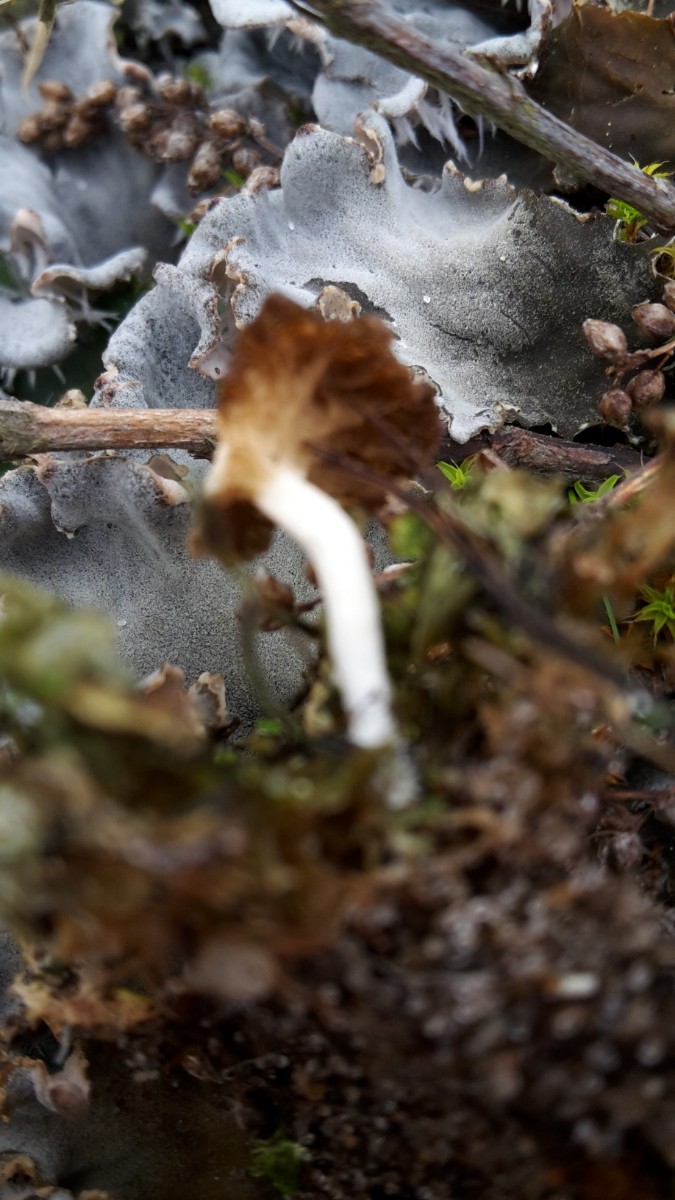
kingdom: Fungi
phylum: Basidiomycota
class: Agaricomycetes
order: Agaricales
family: Hygrophoraceae
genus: Arrhenia
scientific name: Arrhenia peltigerina
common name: skjoldlav-fontænehat
